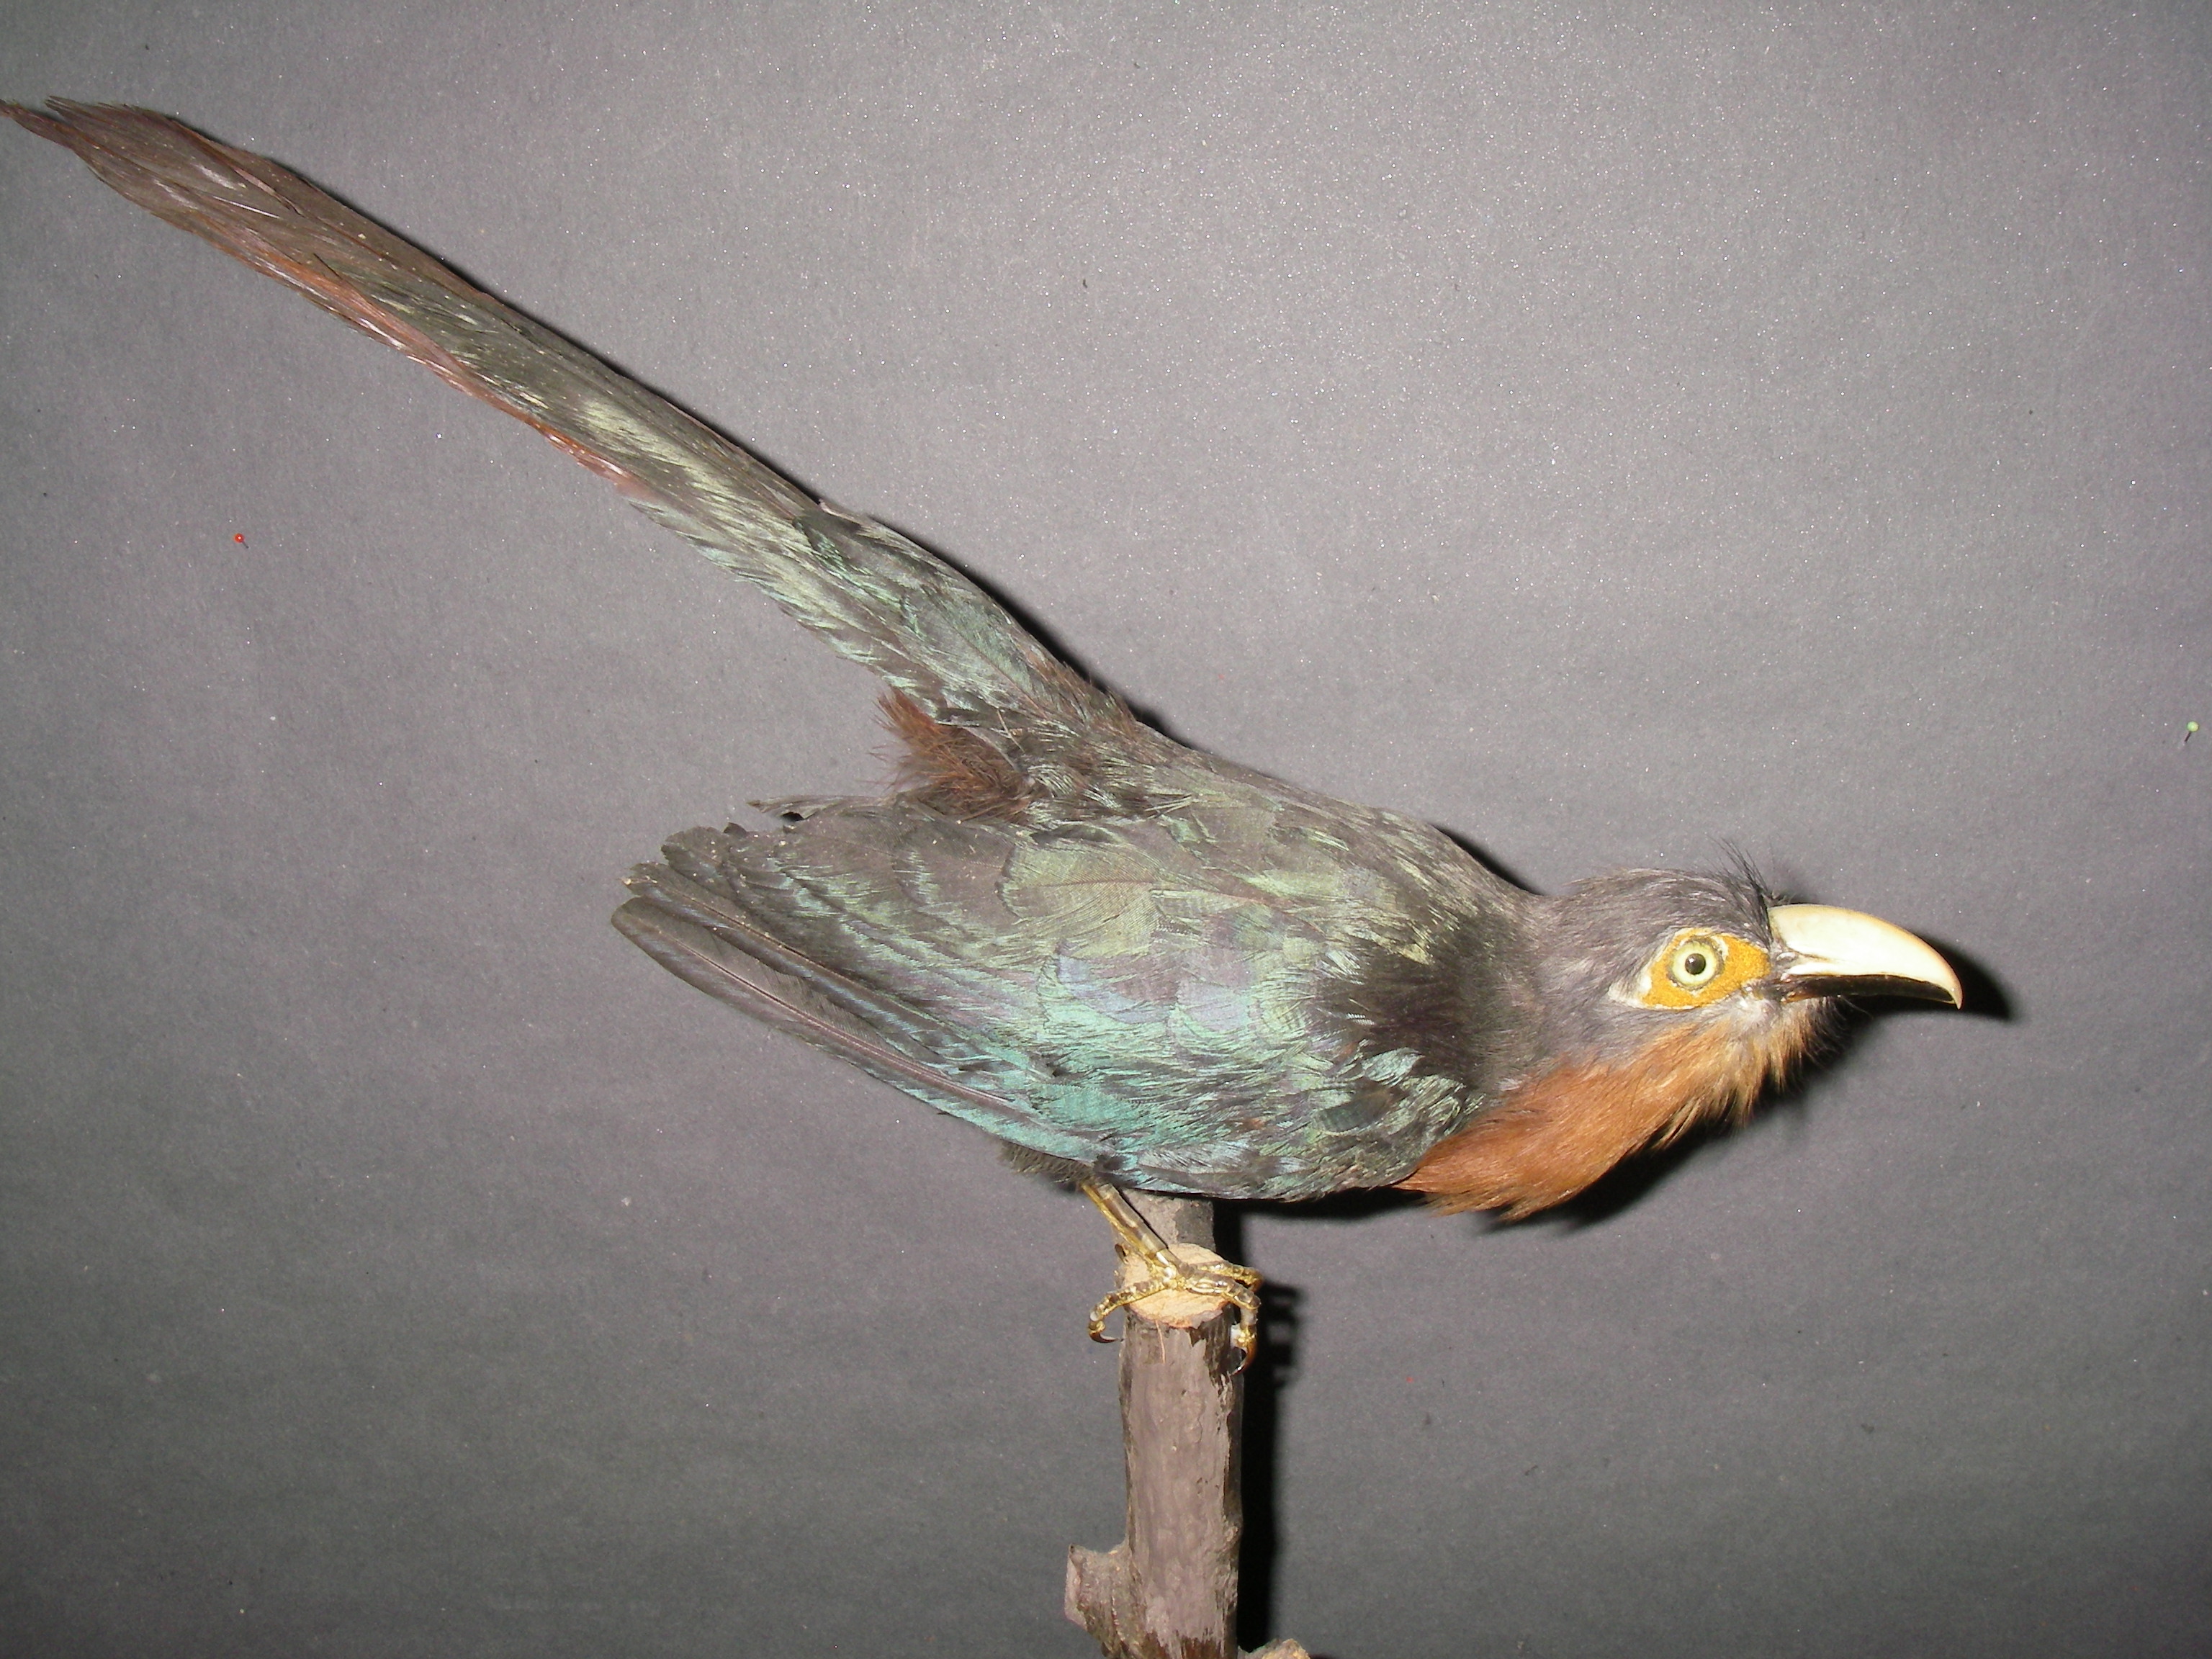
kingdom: Animalia
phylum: Chordata
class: Aves
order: Cuculiformes
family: Cuculidae
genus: Zanclostomus
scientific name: Zanclostomus curvirostris
